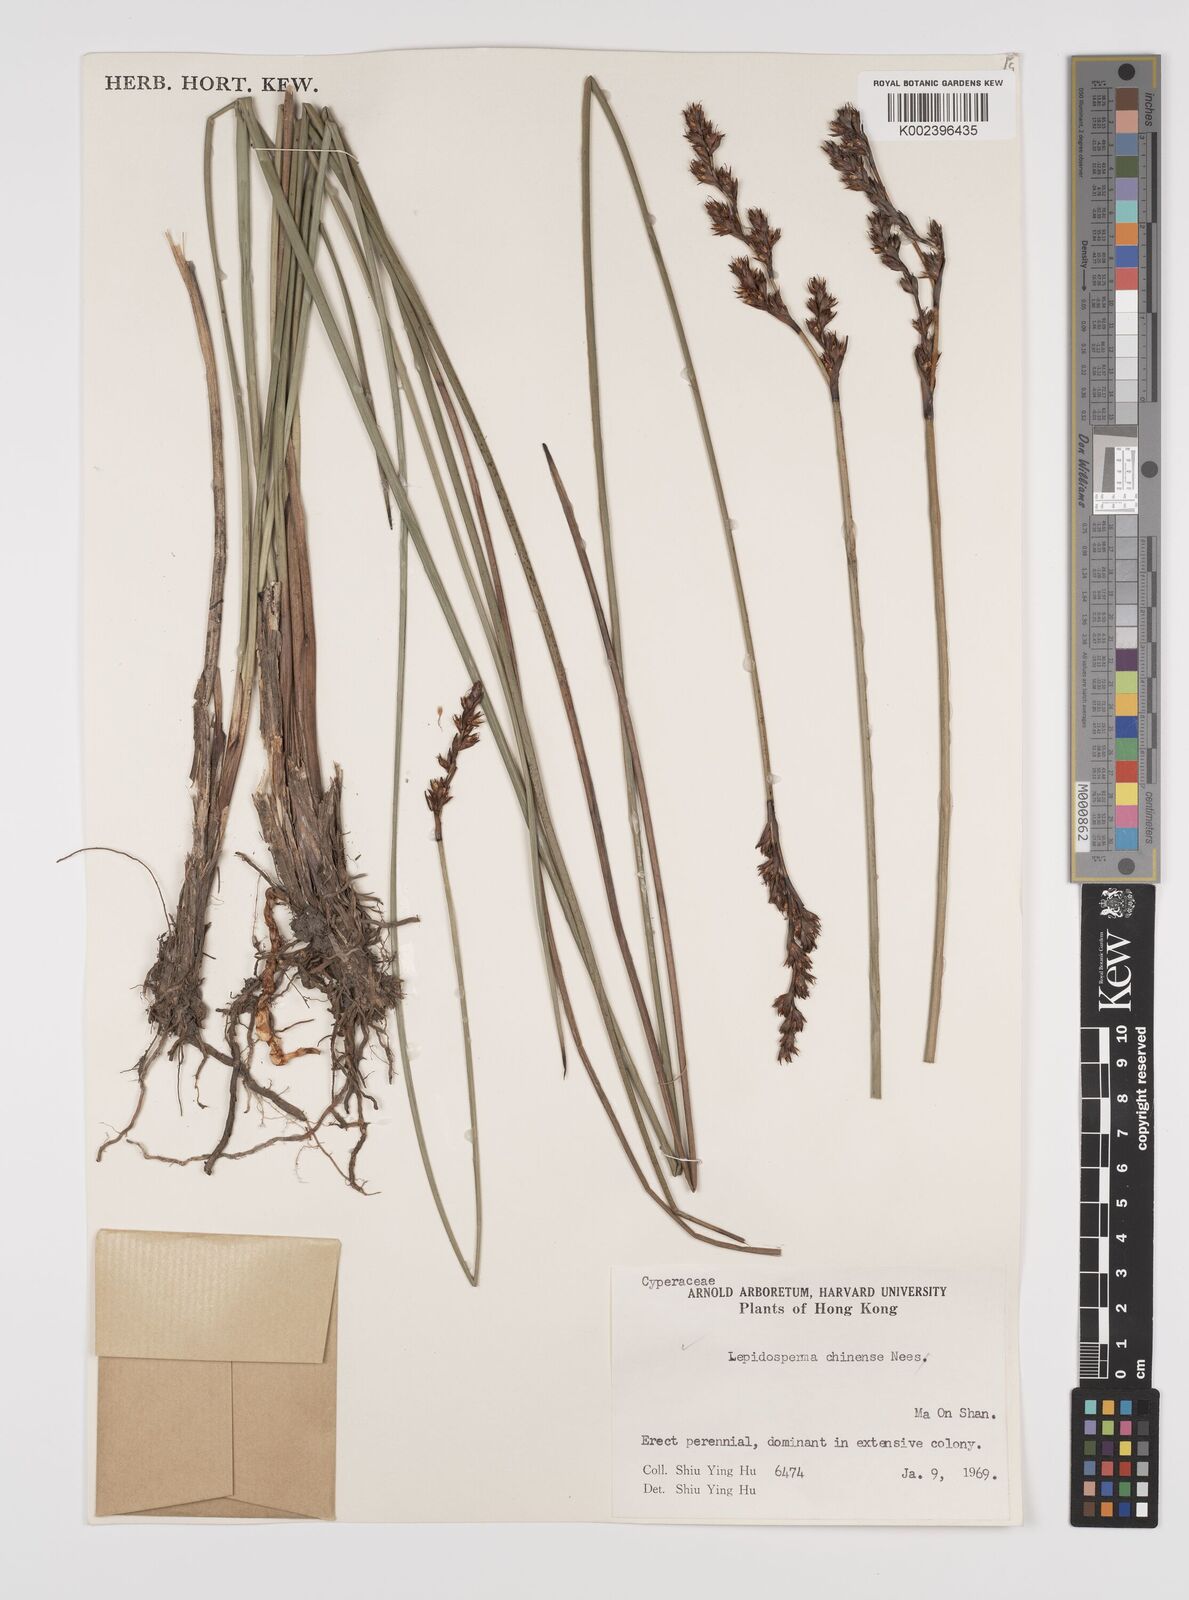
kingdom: Plantae
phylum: Tracheophyta
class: Liliopsida
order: Poales
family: Cyperaceae
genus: Lepidosperma
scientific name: Lepidosperma chinense
